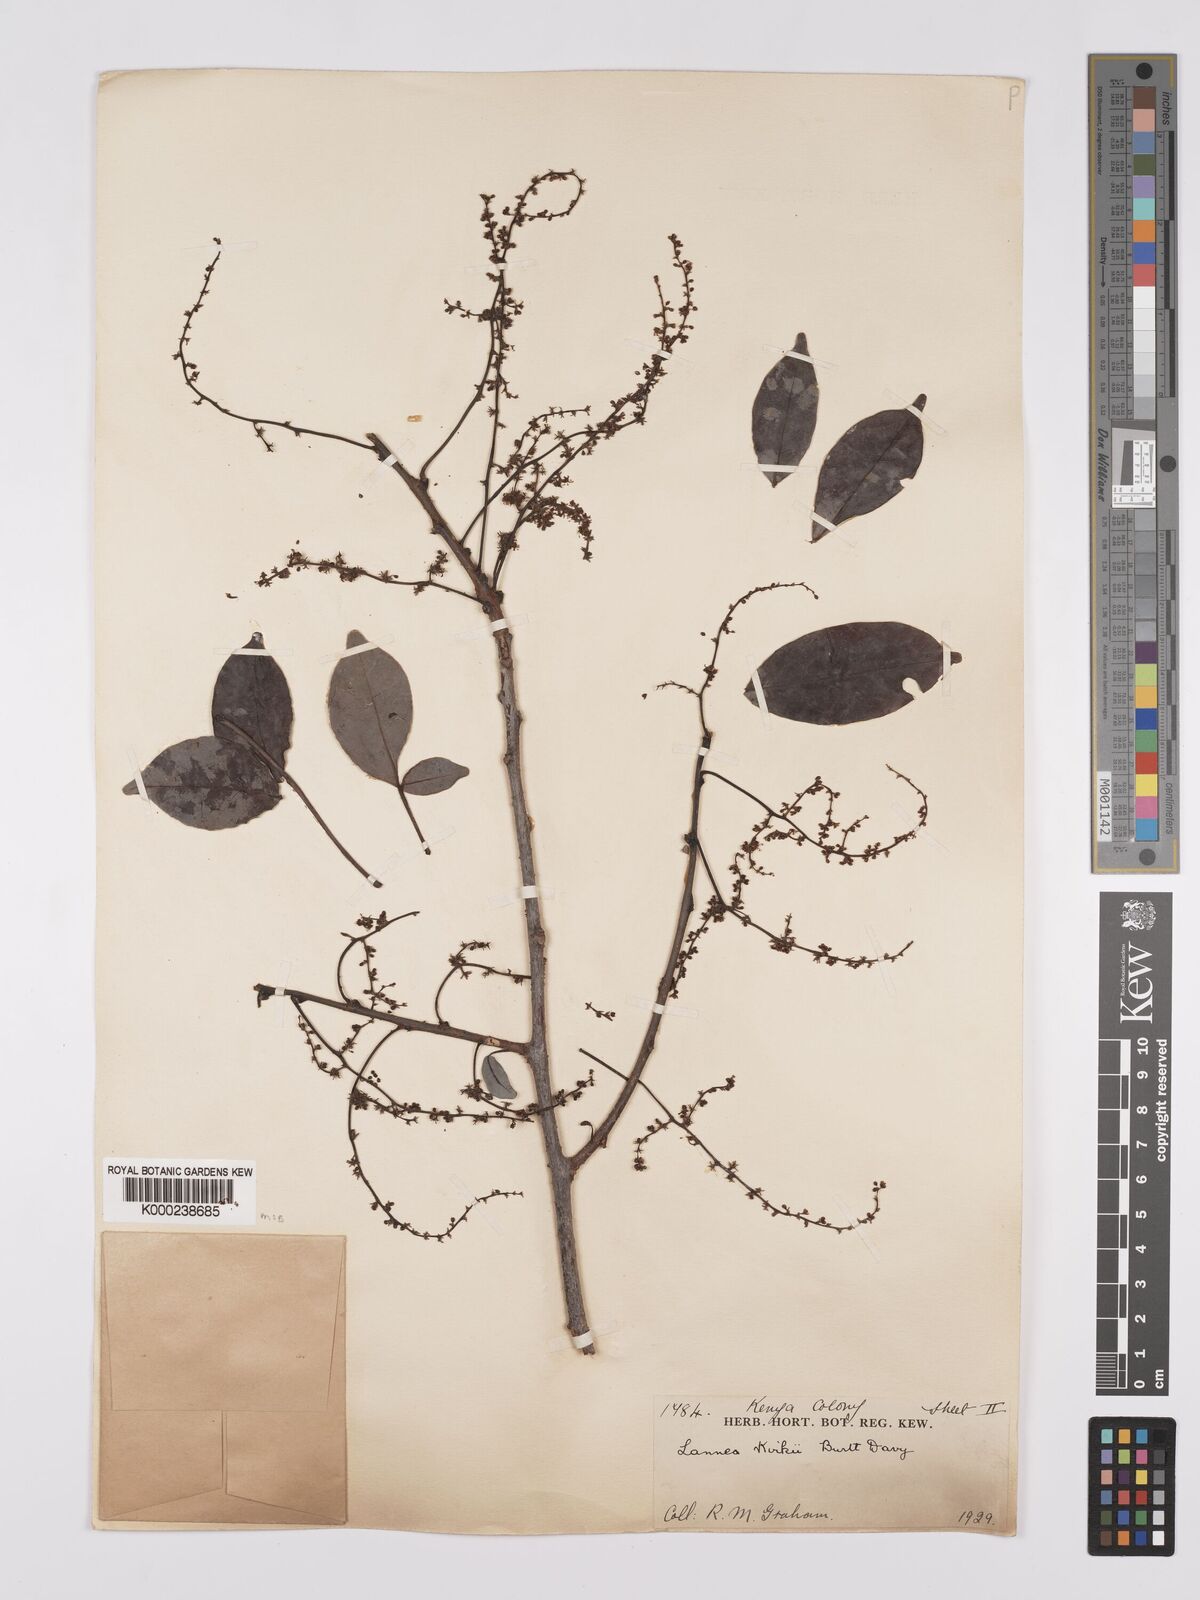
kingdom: Plantae
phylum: Tracheophyta
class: Magnoliopsida
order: Sapindales
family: Anacardiaceae
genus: Lannea
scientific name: Lannea schweinfurthii
